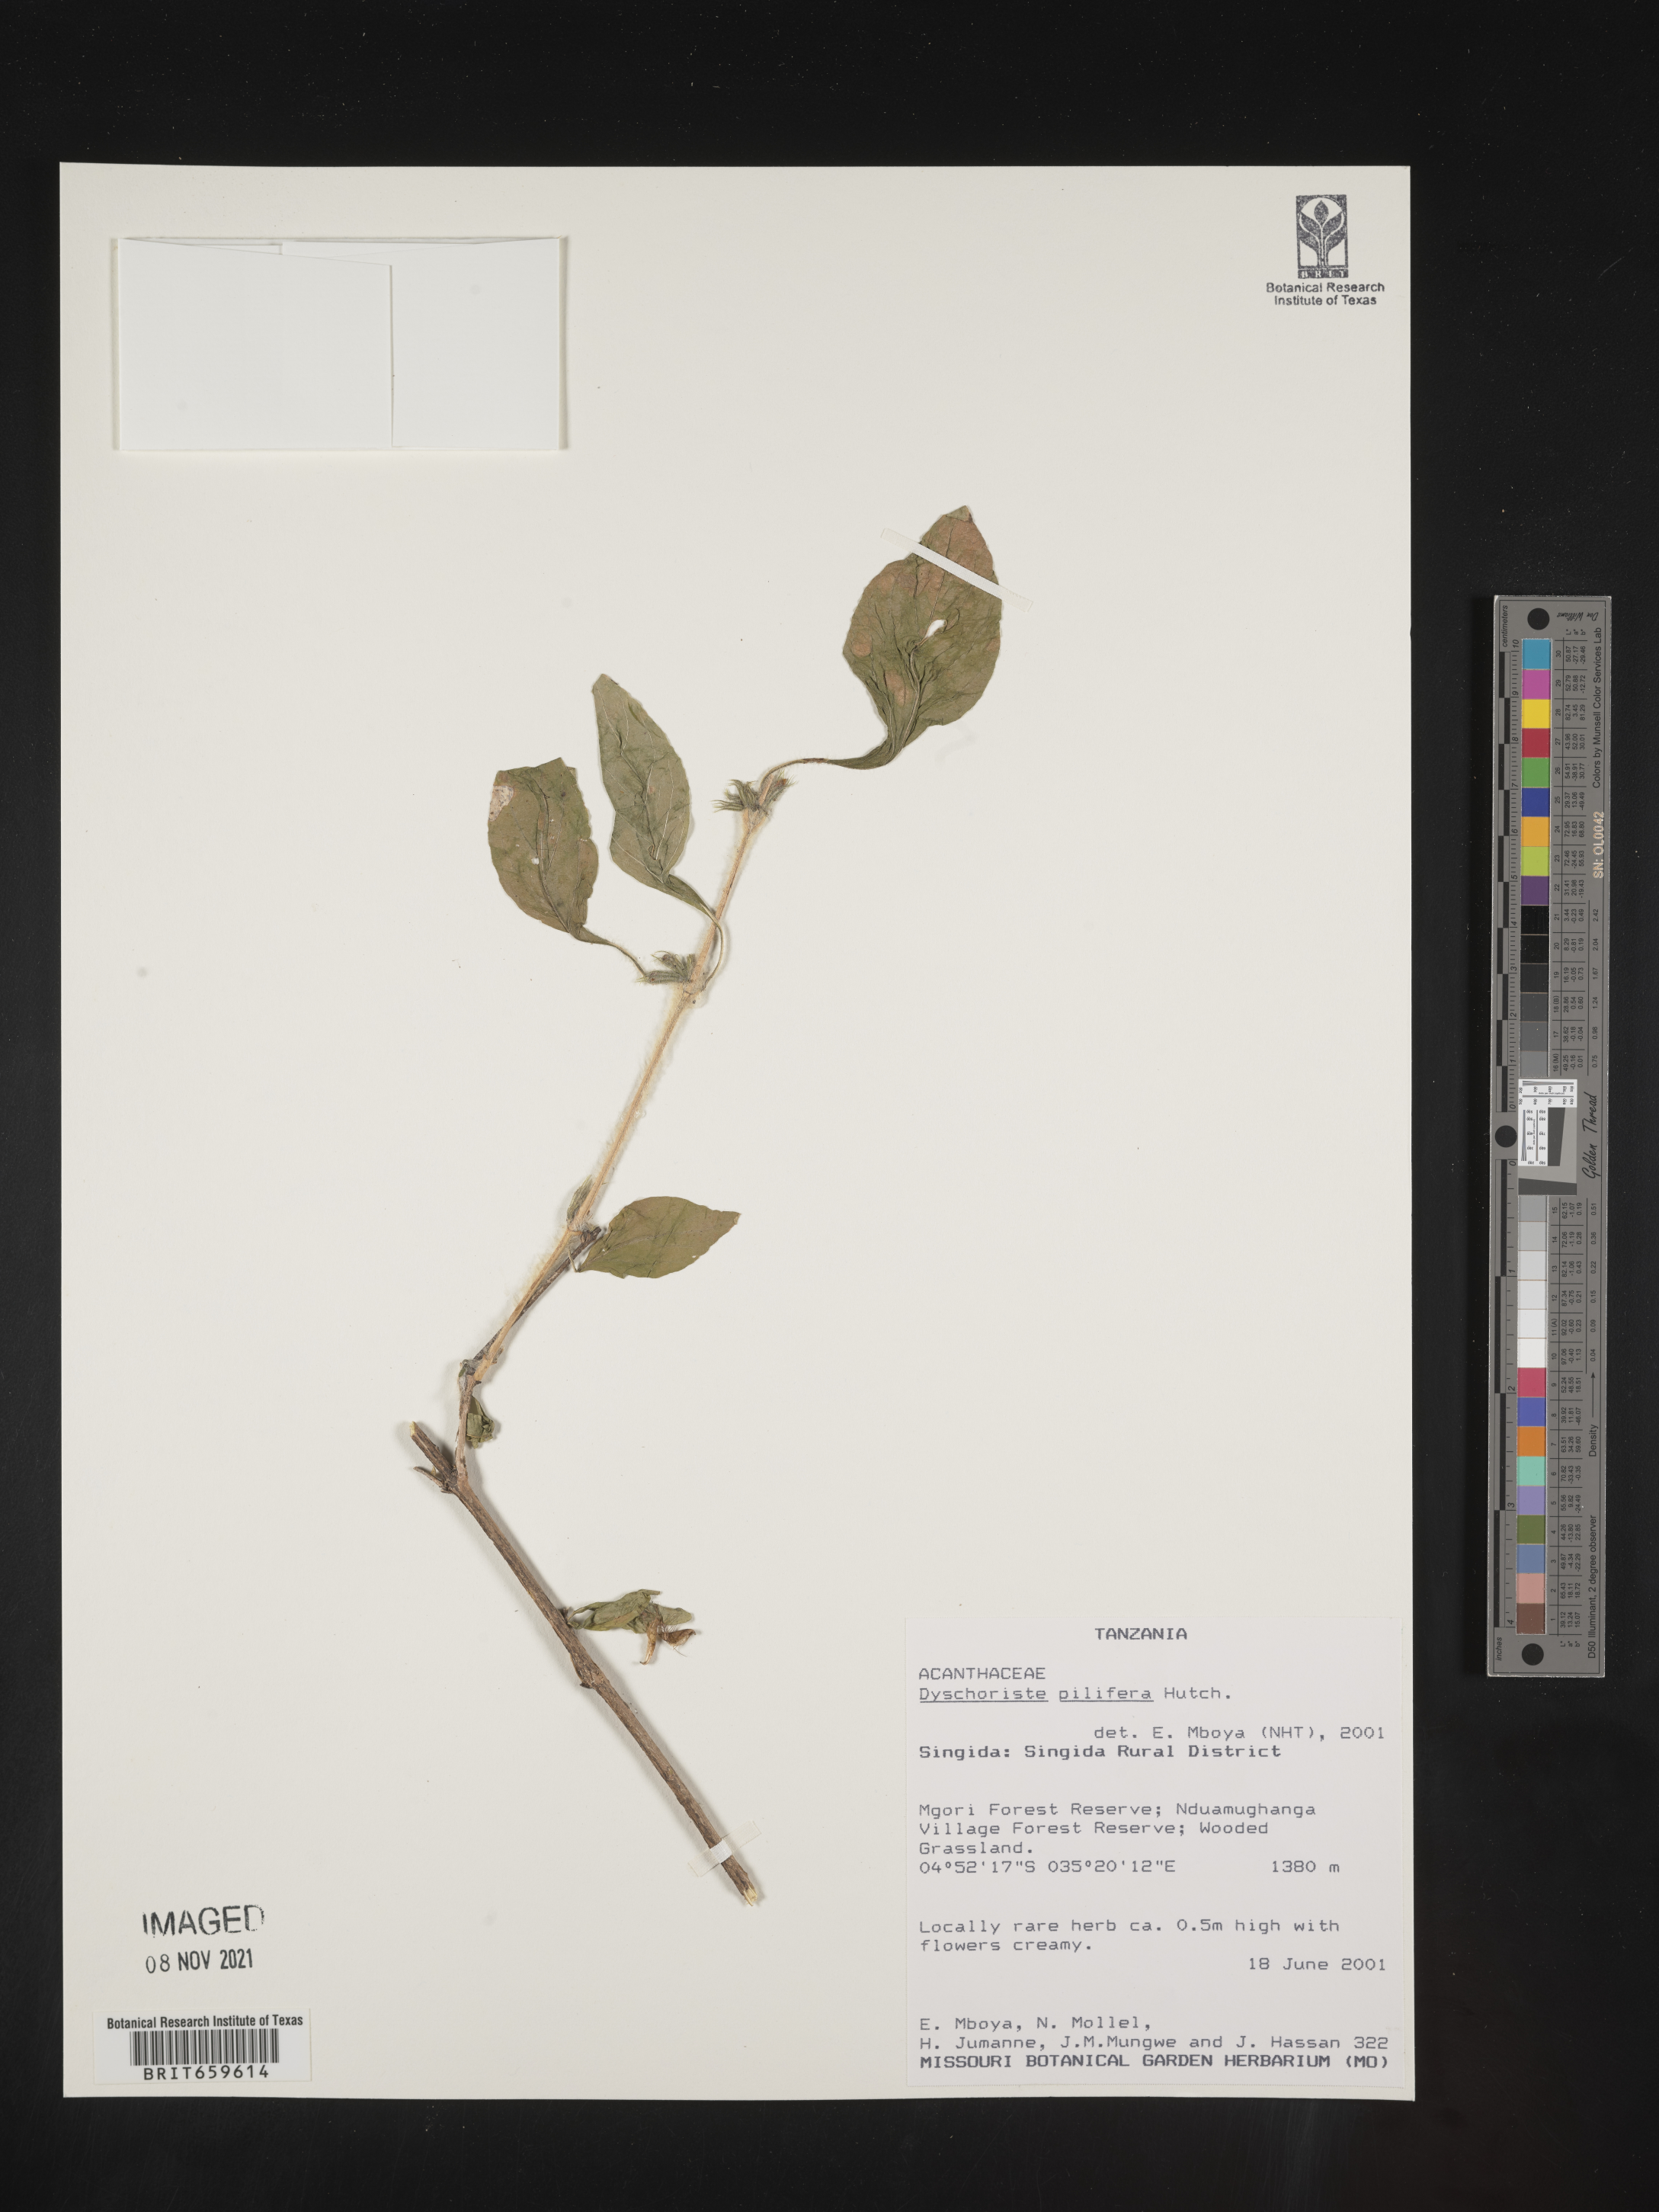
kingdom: Plantae
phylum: Tracheophyta
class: Magnoliopsida
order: Lamiales
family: Acanthaceae
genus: Dyschoriste
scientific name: Dyschoriste pilifera
